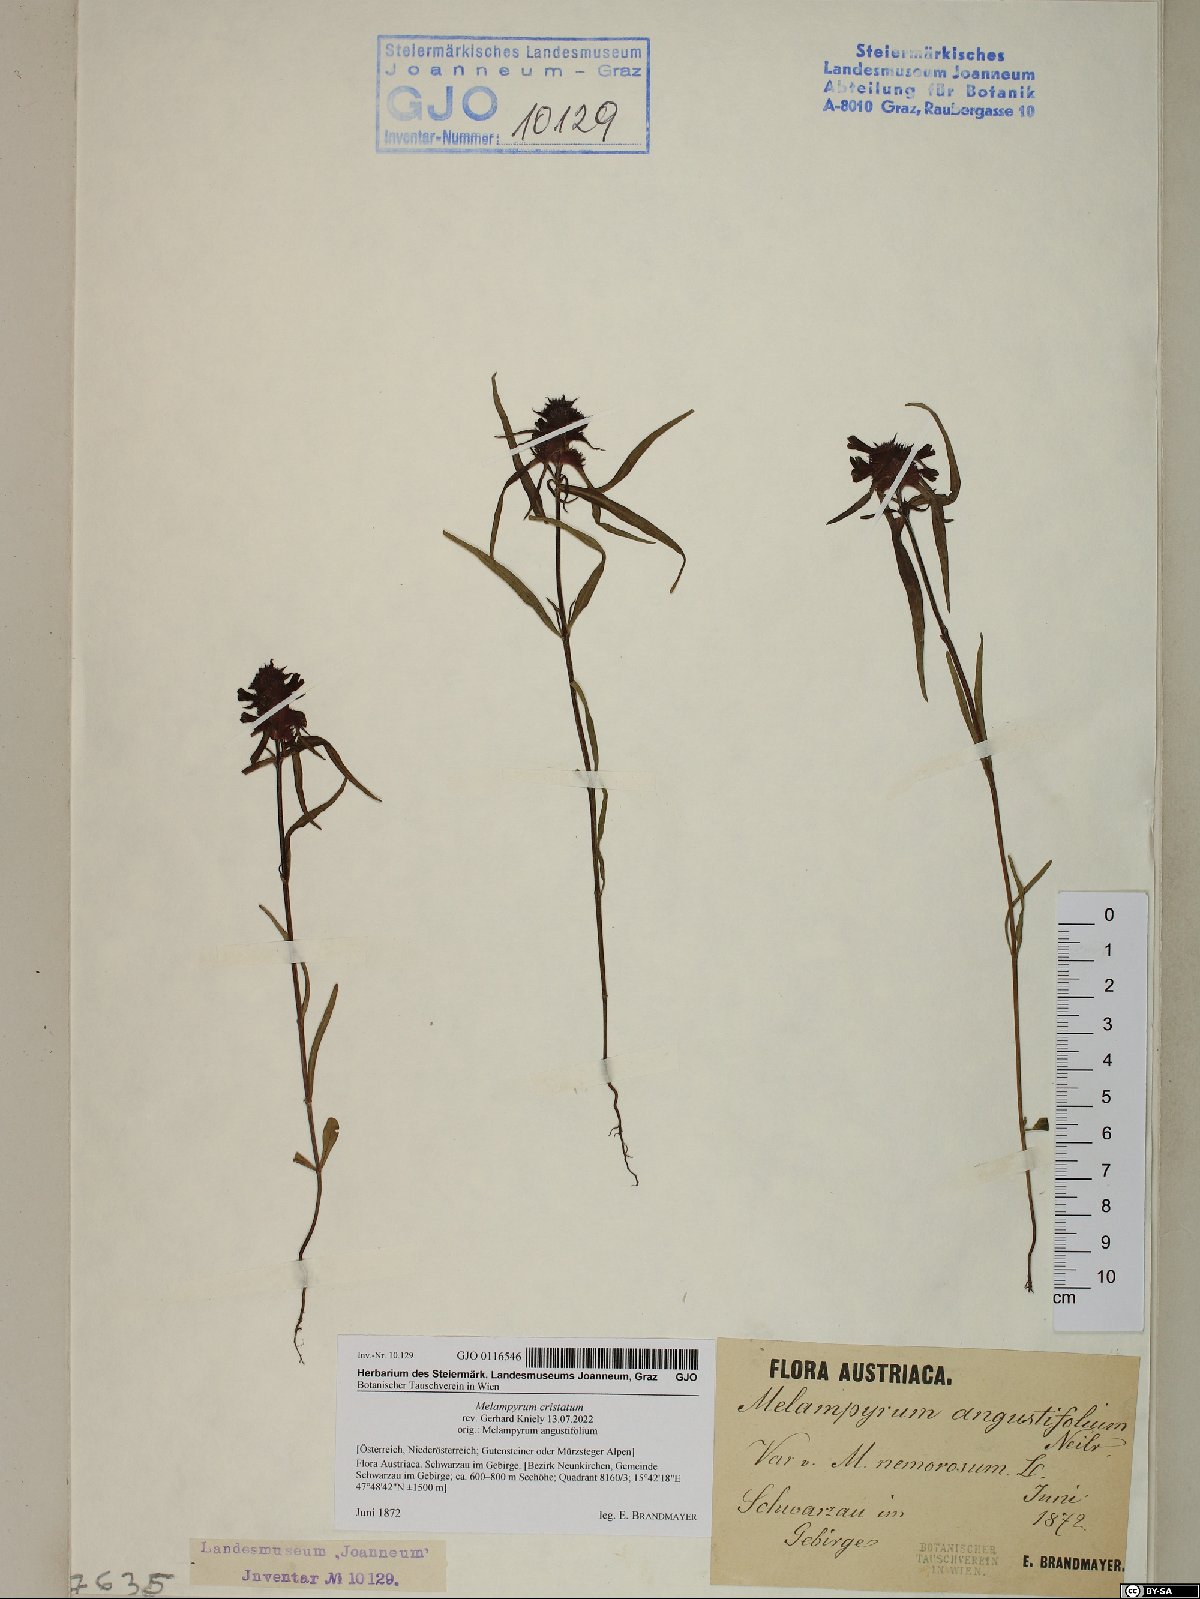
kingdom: Plantae
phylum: Tracheophyta
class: Magnoliopsida
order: Lamiales
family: Orobanchaceae
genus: Melampyrum
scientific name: Melampyrum cristatum
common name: Crested cow-wheat
